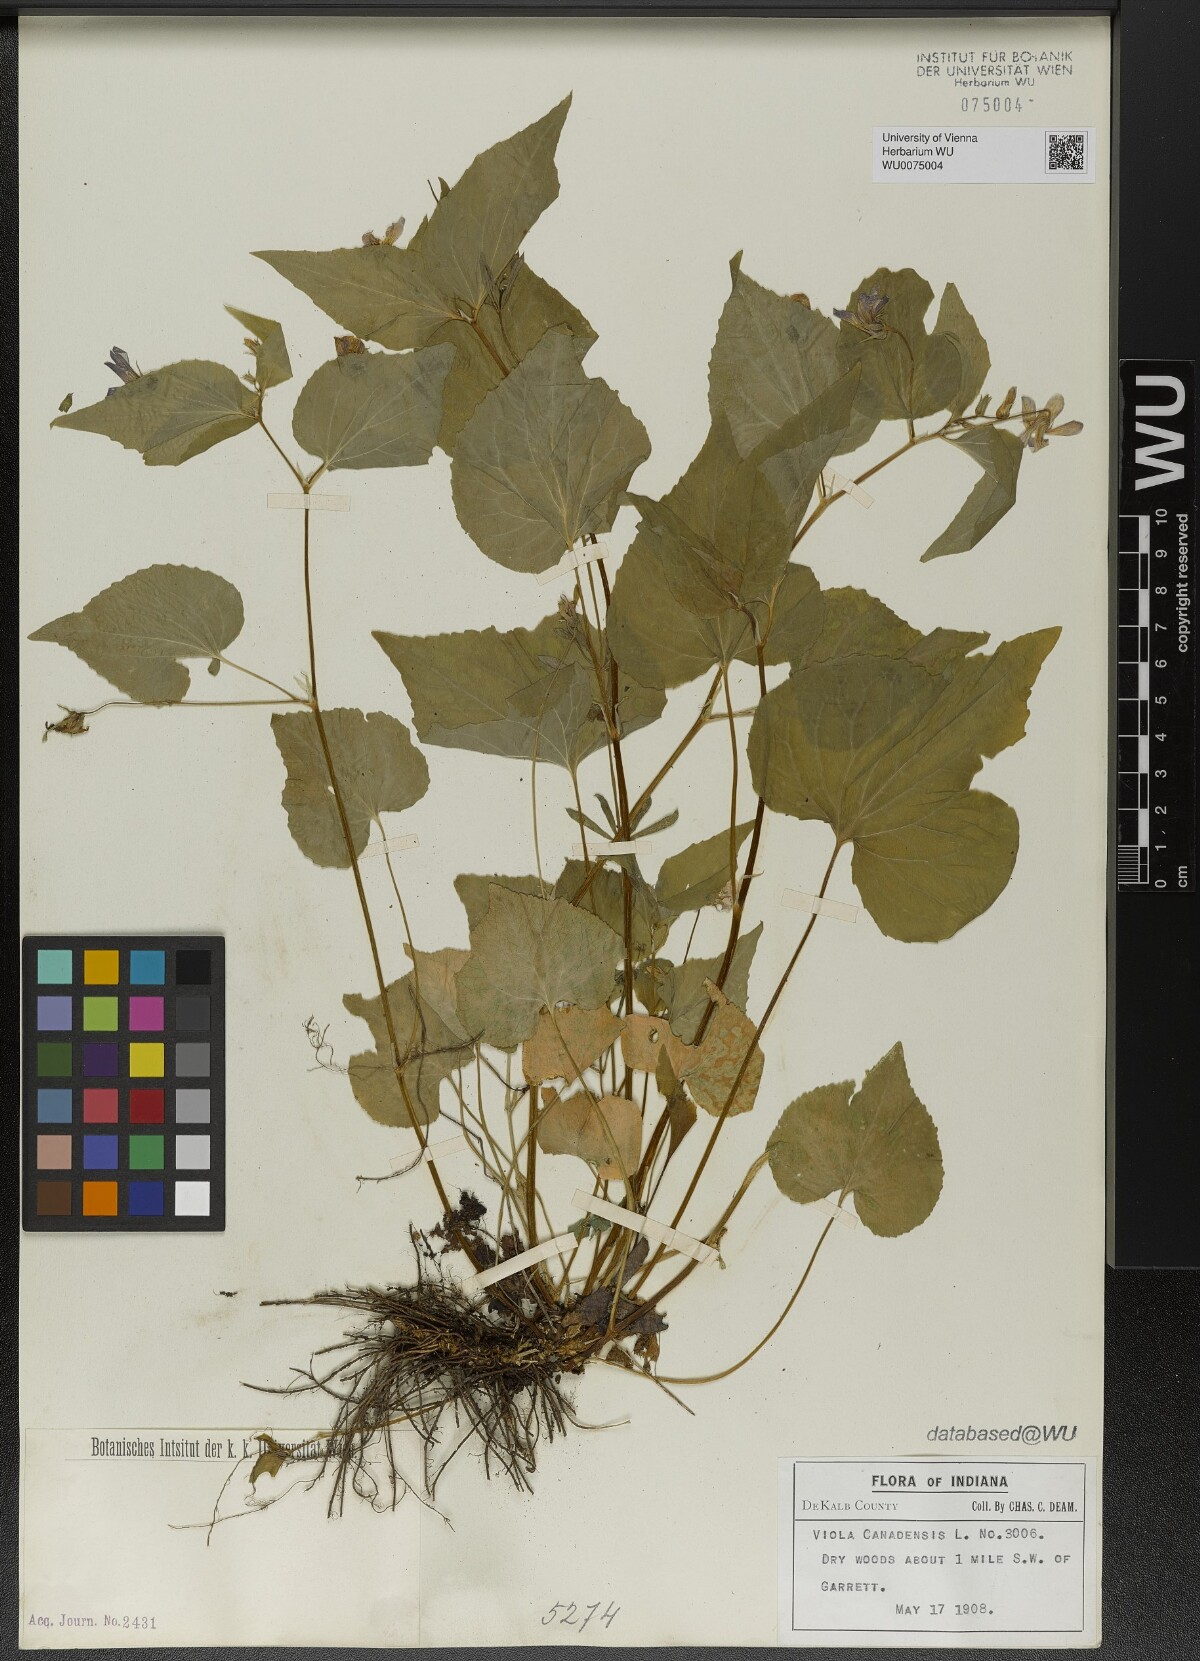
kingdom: Plantae
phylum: Tracheophyta
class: Magnoliopsida
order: Malpighiales
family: Violaceae
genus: Viola
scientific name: Viola canadensis
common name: Canada violet
